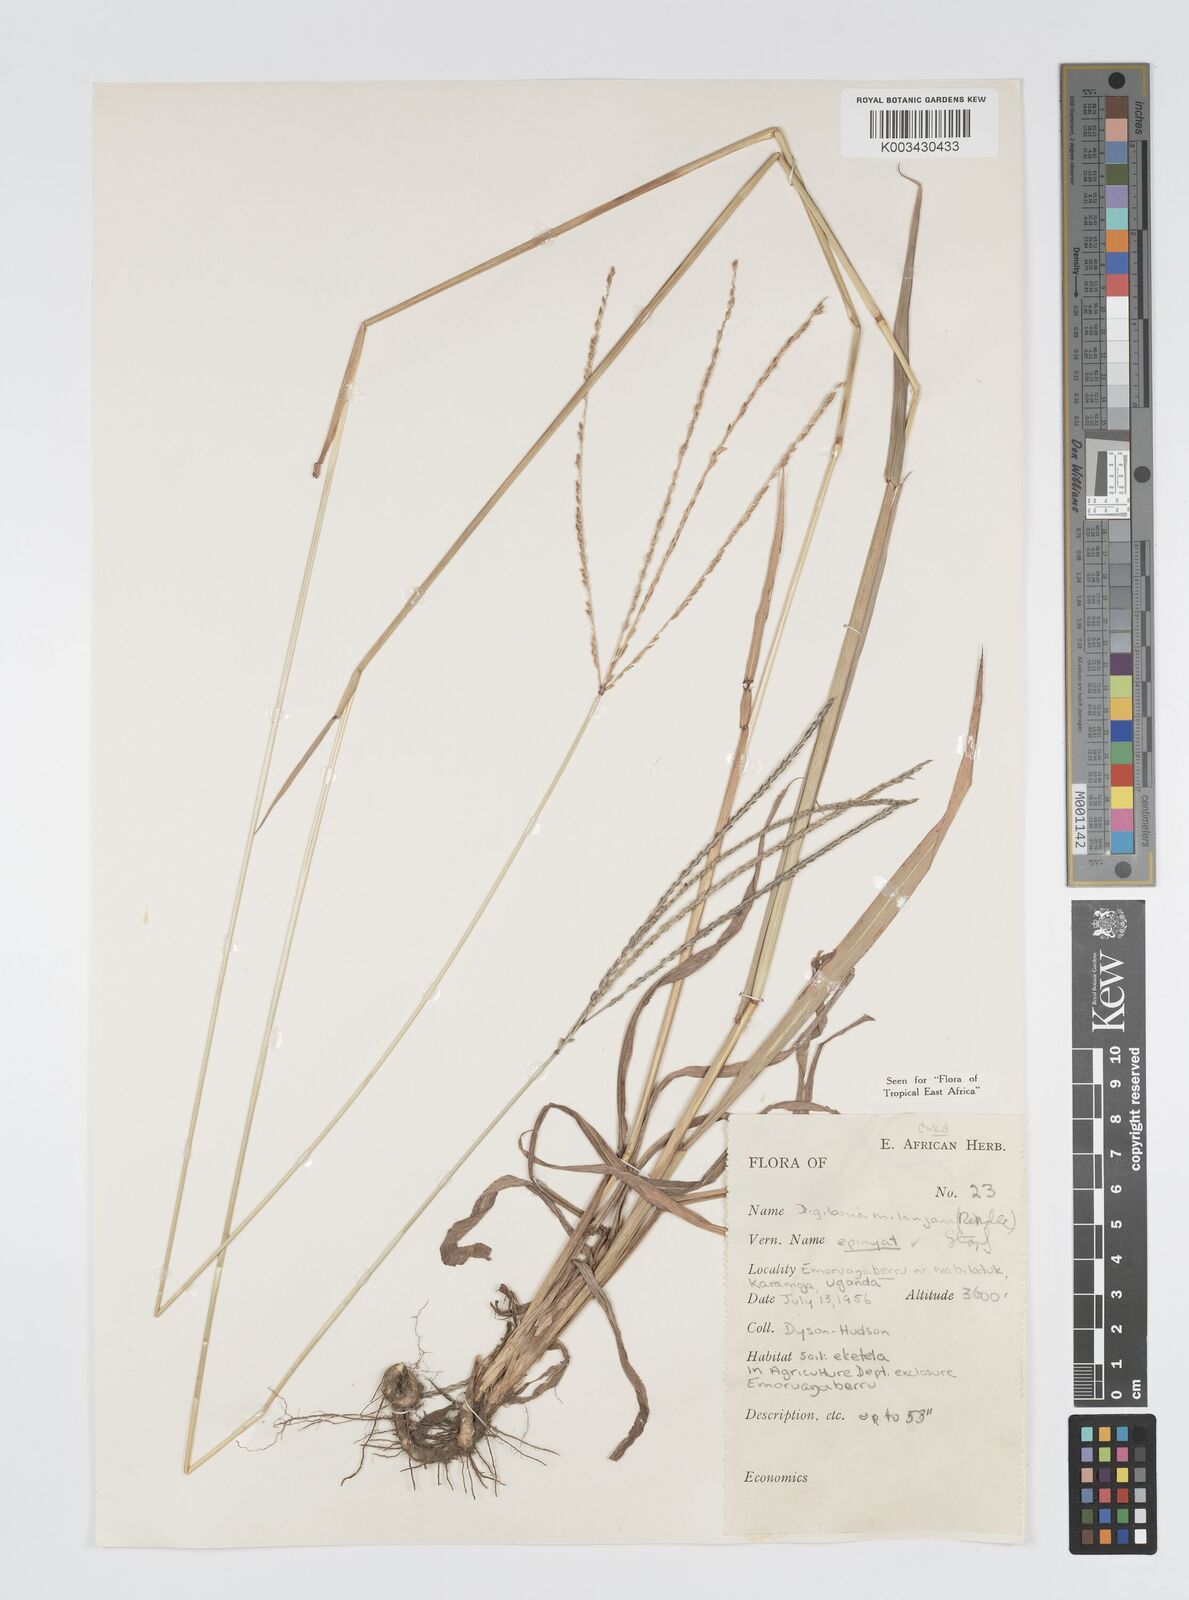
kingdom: Plantae
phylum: Tracheophyta
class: Liliopsida
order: Poales
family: Poaceae
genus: Digitaria
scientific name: Digitaria milanjiana
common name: Madagascar crabgrass
